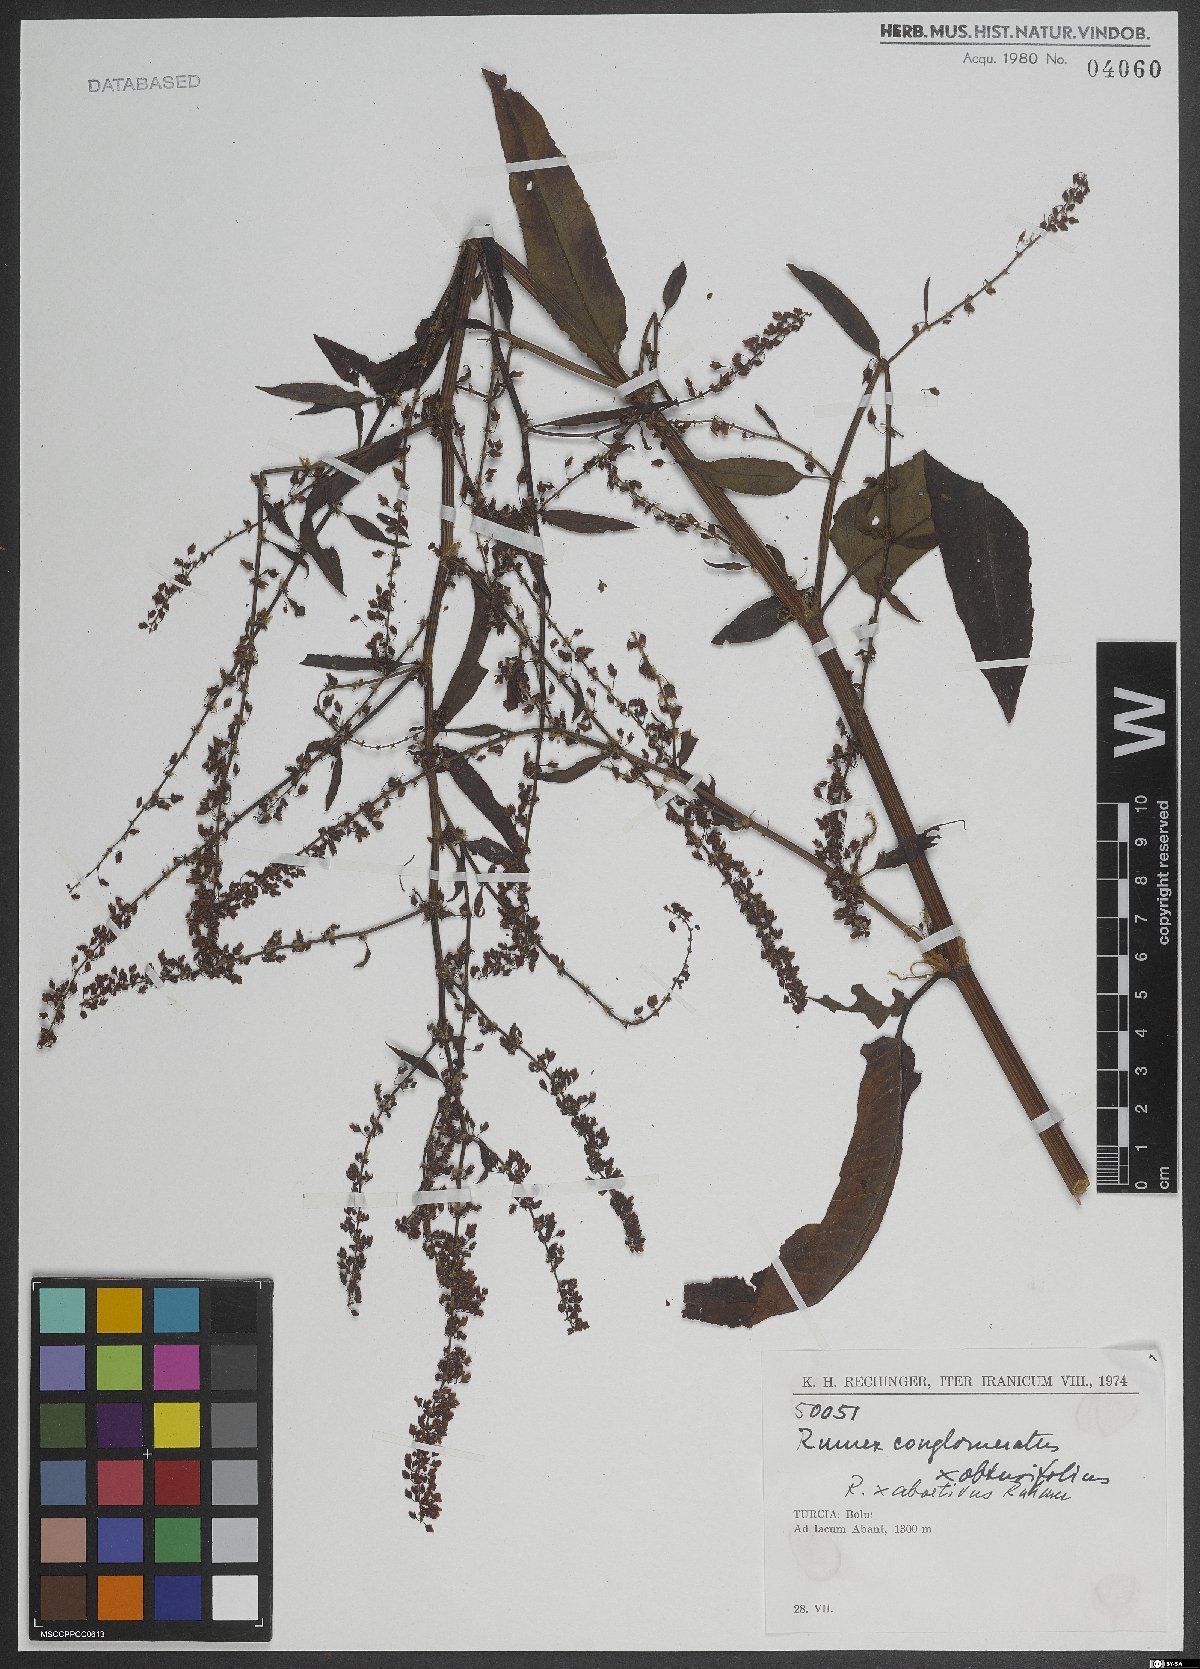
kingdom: Plantae
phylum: Tracheophyta
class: Magnoliopsida
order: Caryophyllales
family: Polygonaceae
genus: Rumex
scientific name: Rumex abortivus
